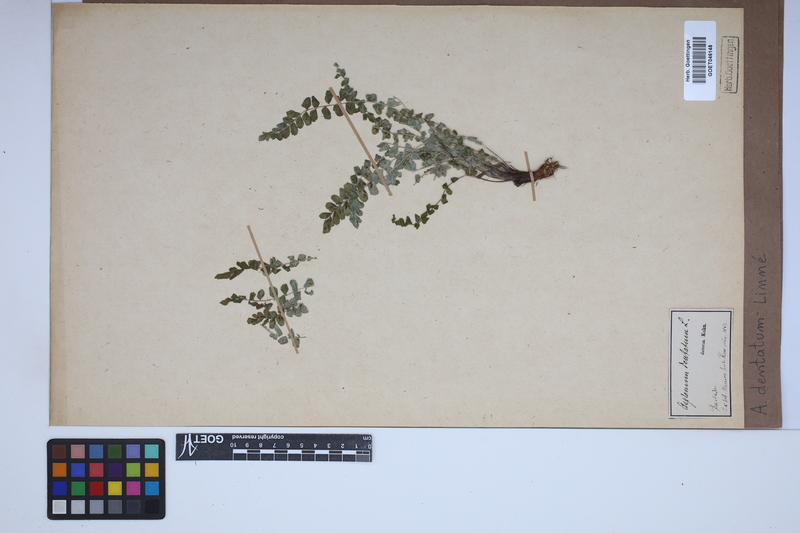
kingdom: Plantae
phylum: Tracheophyta
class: Polypodiopsida
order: Polypodiales
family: Aspleniaceae
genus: Asplenium
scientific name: Asplenium dentatum
